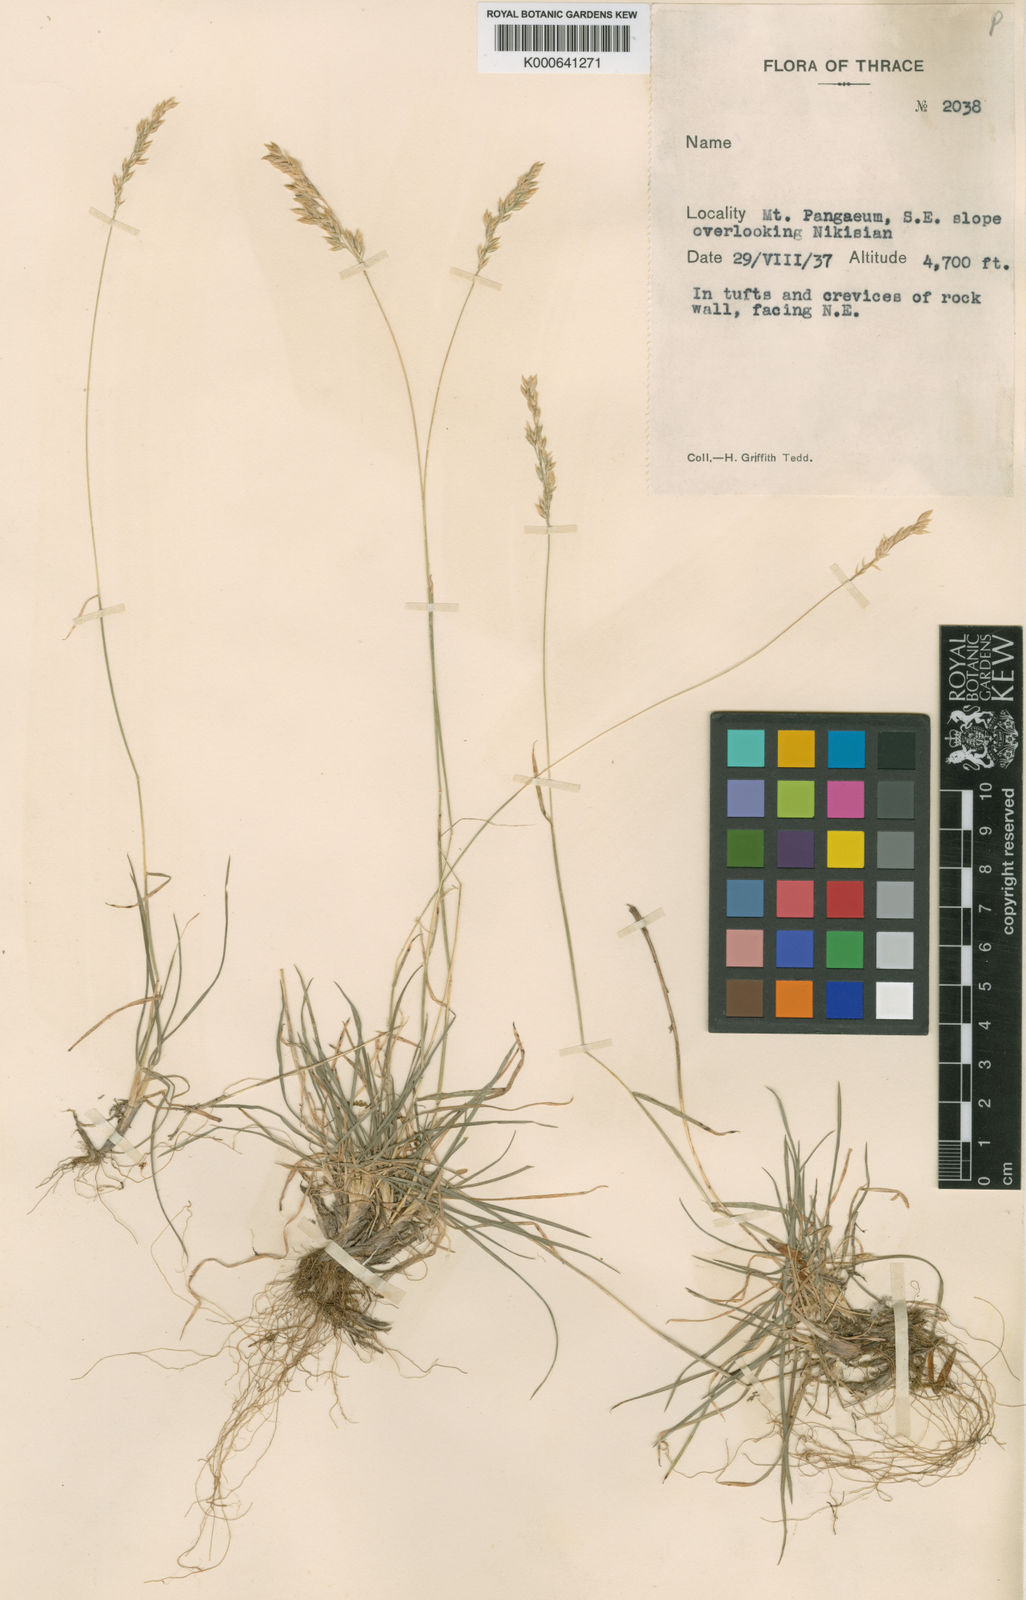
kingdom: Plantae
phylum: Tracheophyta
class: Liliopsida
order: Poales
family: Poaceae
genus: Briza
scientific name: Briza media
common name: Quaking grass
